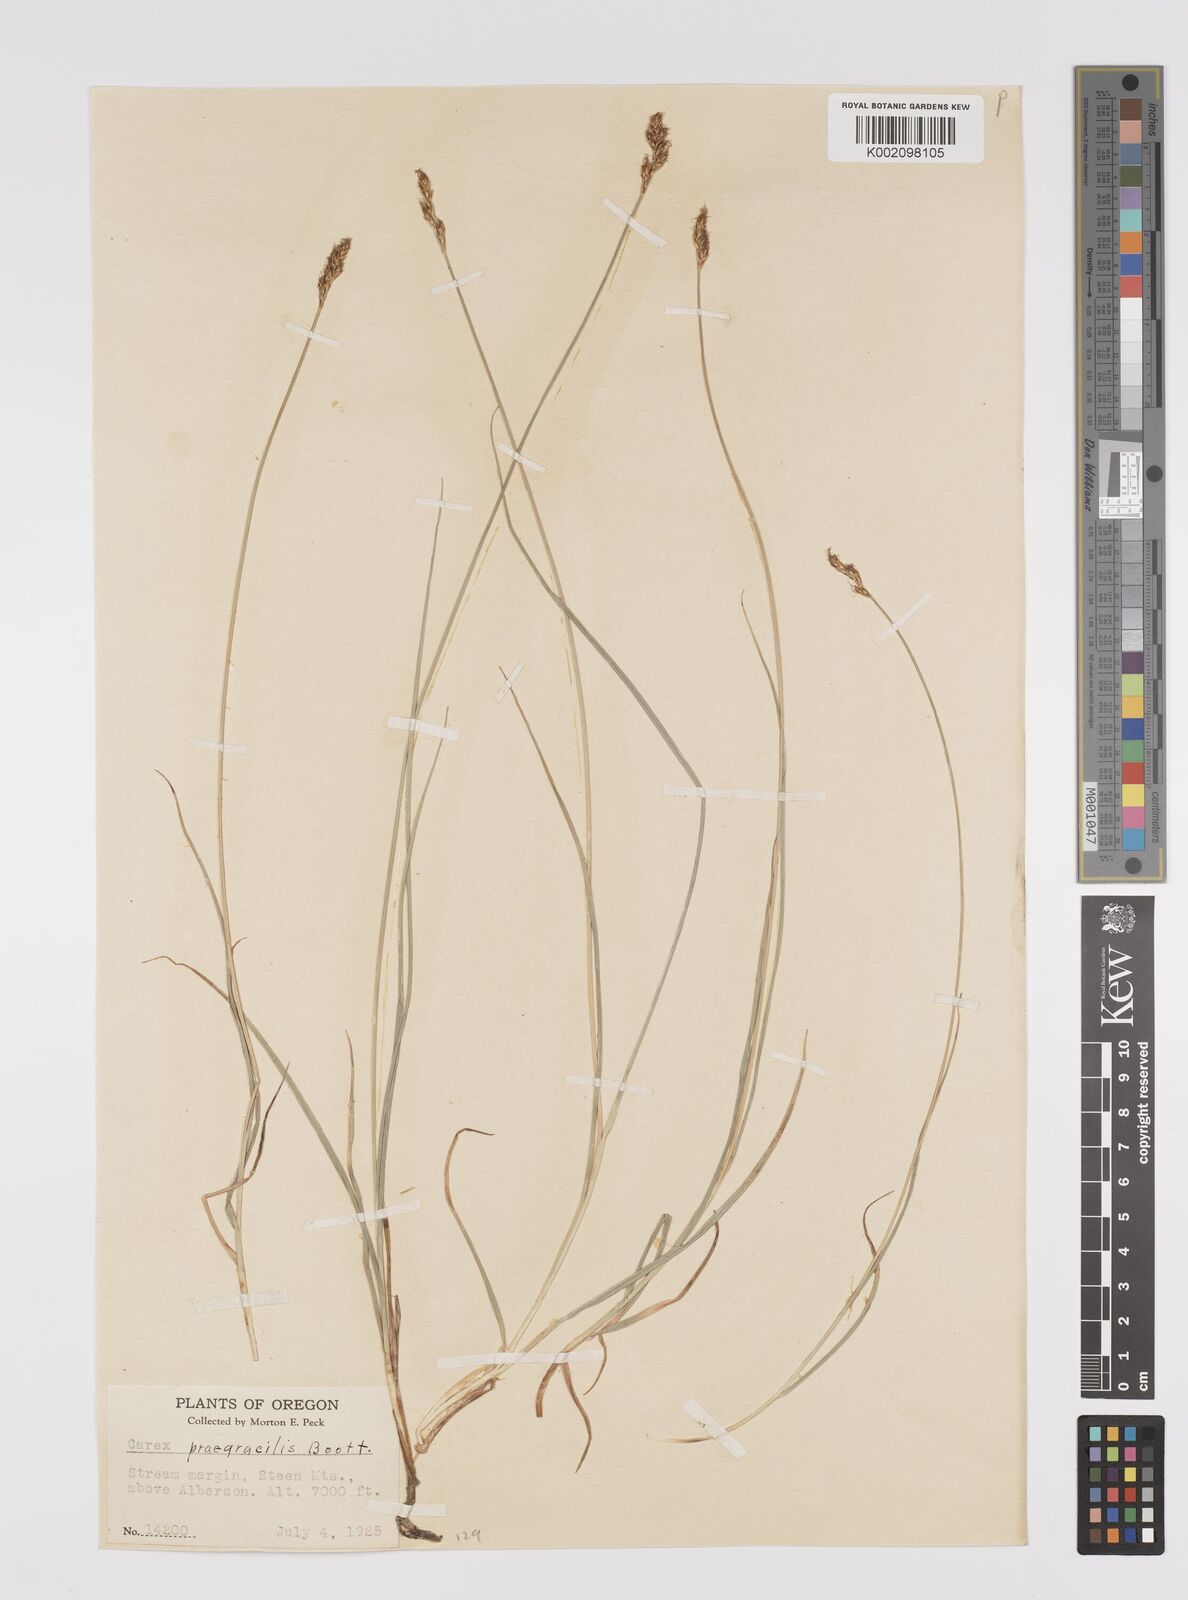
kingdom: Plantae
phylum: Tracheophyta
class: Liliopsida
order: Poales
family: Cyperaceae
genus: Carex
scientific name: Carex praegracilis
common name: Black creeper sedge
